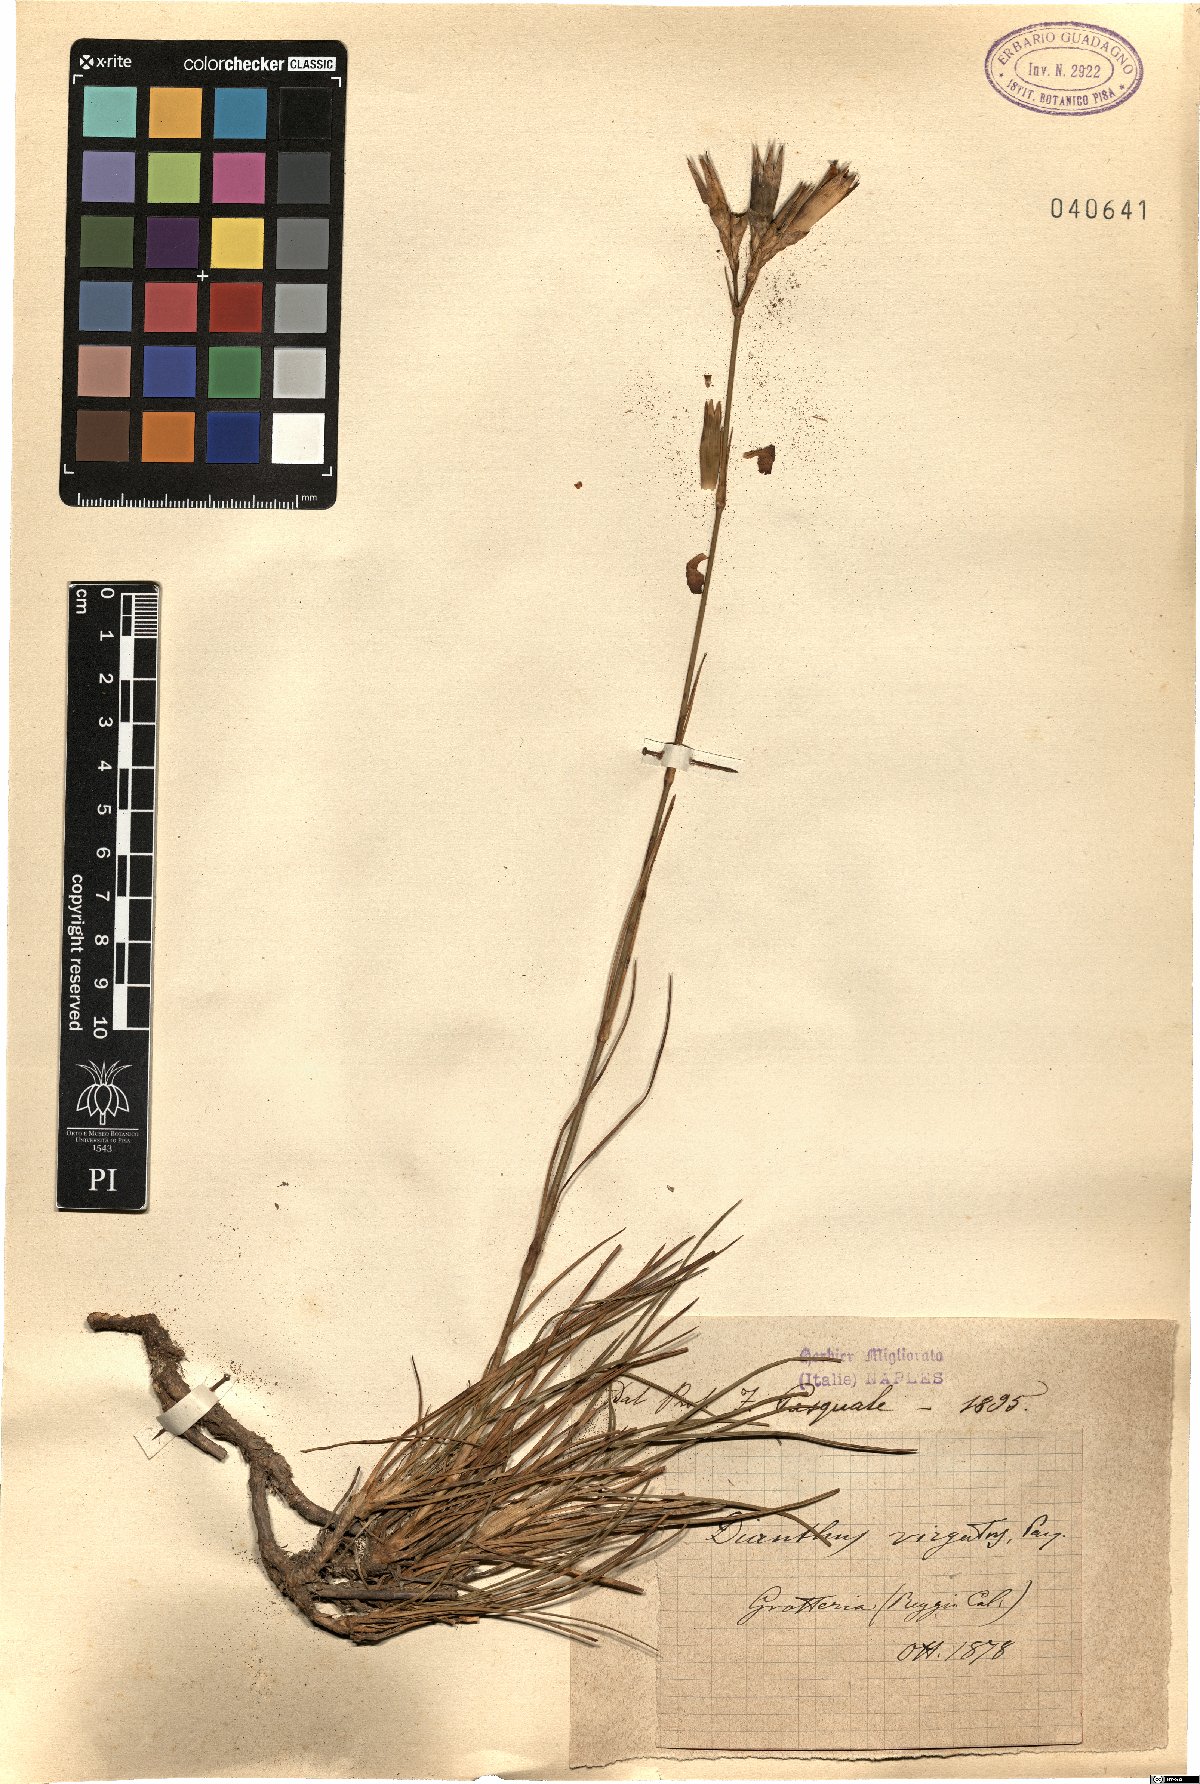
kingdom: Plantae
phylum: Tracheophyta
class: Magnoliopsida
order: Caryophyllales
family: Caryophyllaceae
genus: Dianthus
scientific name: Dianthus virgatus
